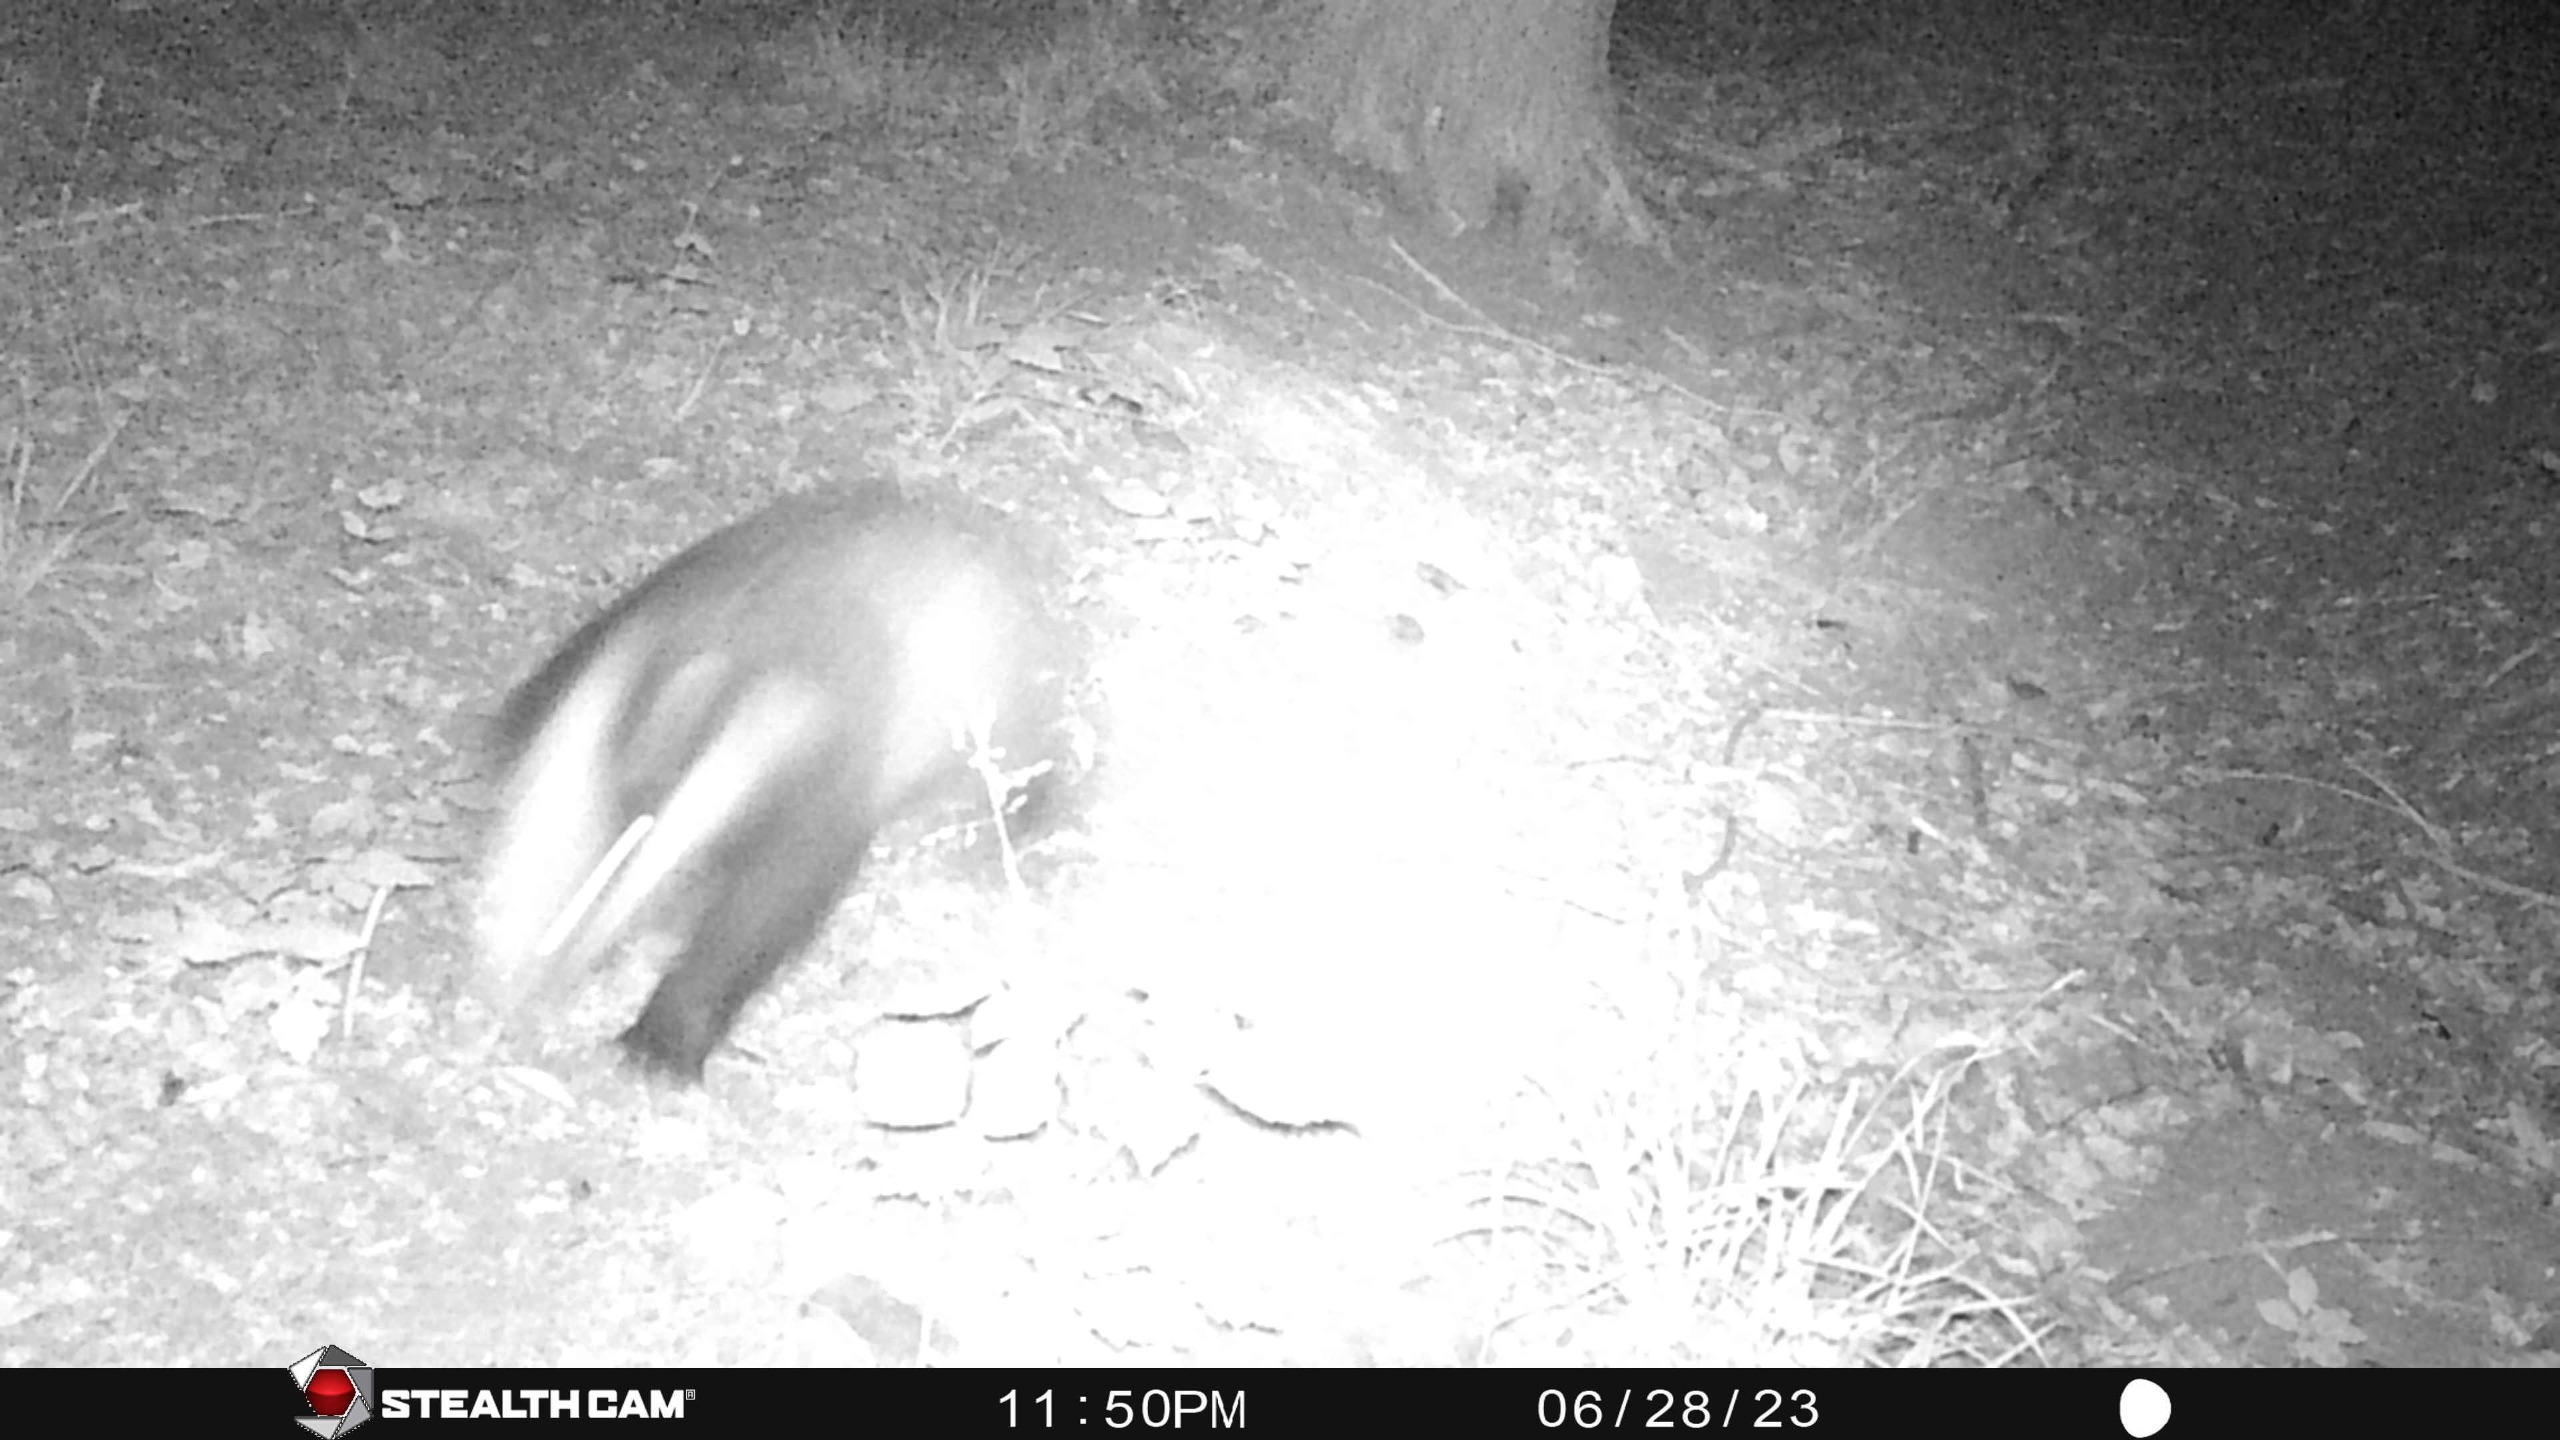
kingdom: Animalia
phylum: Chordata
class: Mammalia
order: Carnivora
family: Mustelidae
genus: Meles
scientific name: Meles meles
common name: Grævling
